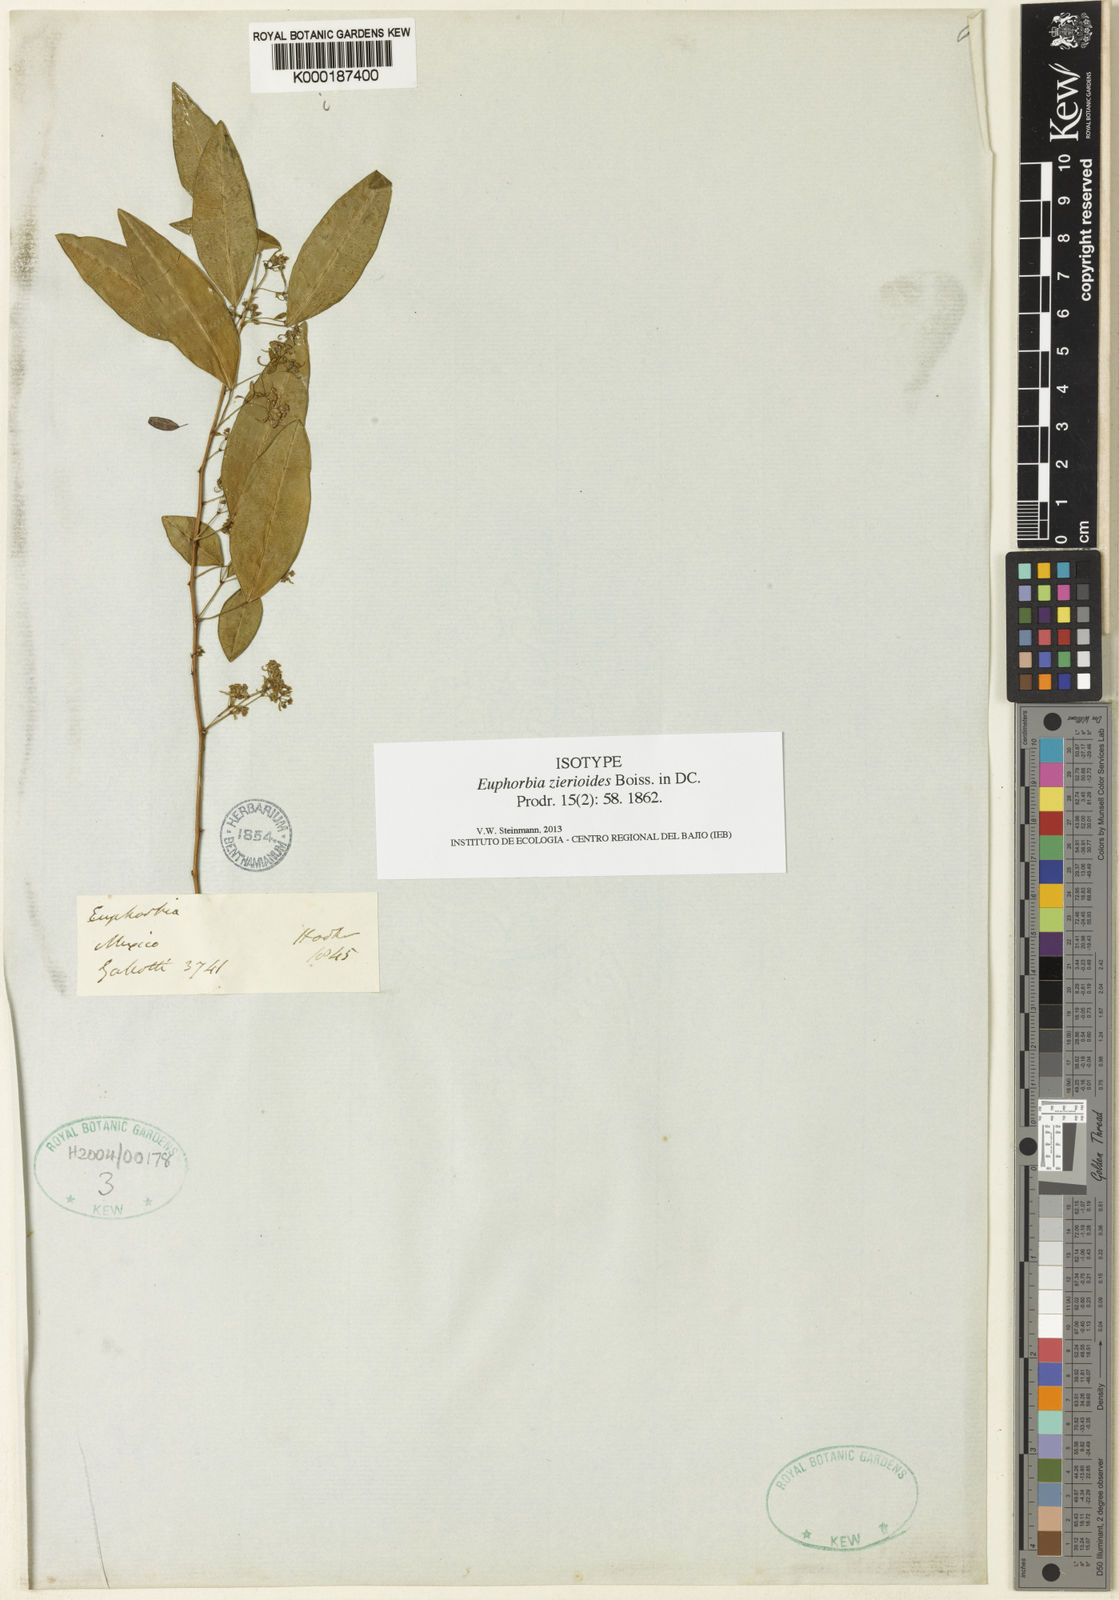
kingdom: Plantae
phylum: Tracheophyta
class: Magnoliopsida
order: Malpighiales
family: Euphorbiaceae
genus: Euphorbia
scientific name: Euphorbia zierioides
